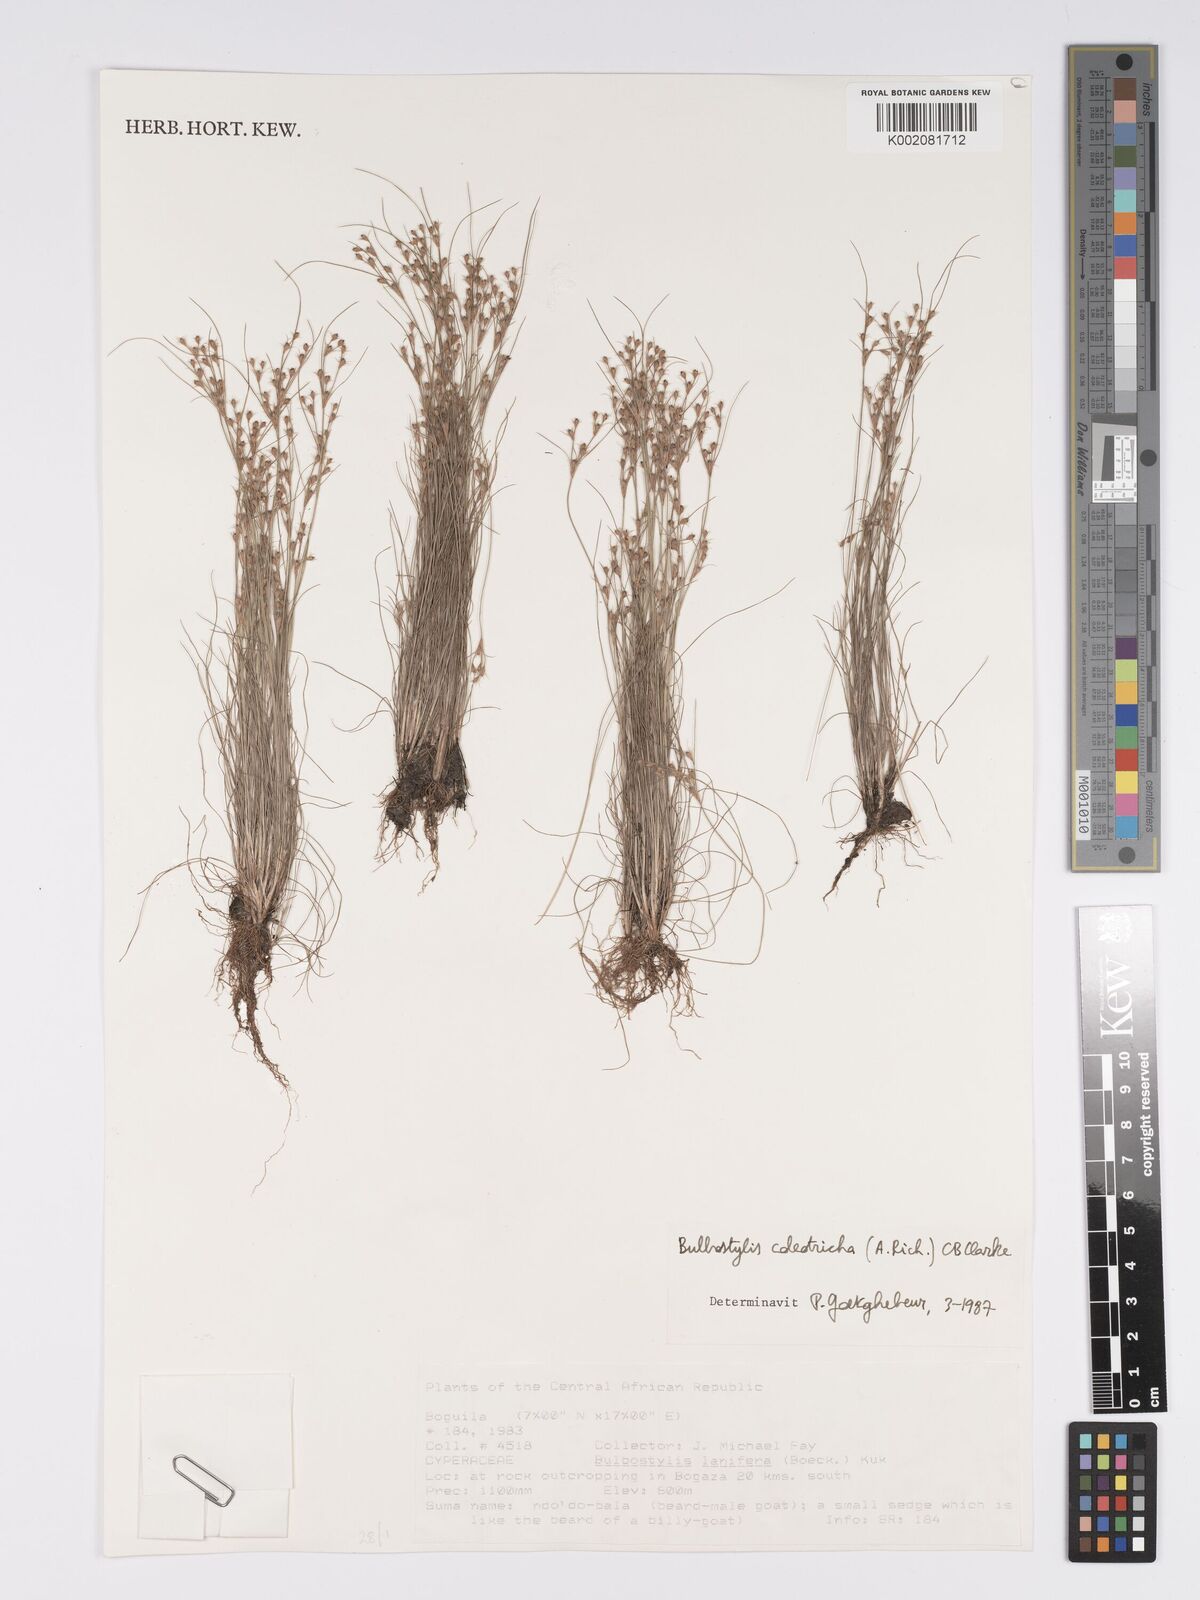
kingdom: Plantae
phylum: Tracheophyta
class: Liliopsida
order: Poales
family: Cyperaceae
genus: Bulbostylis
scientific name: Bulbostylis coleotricha
